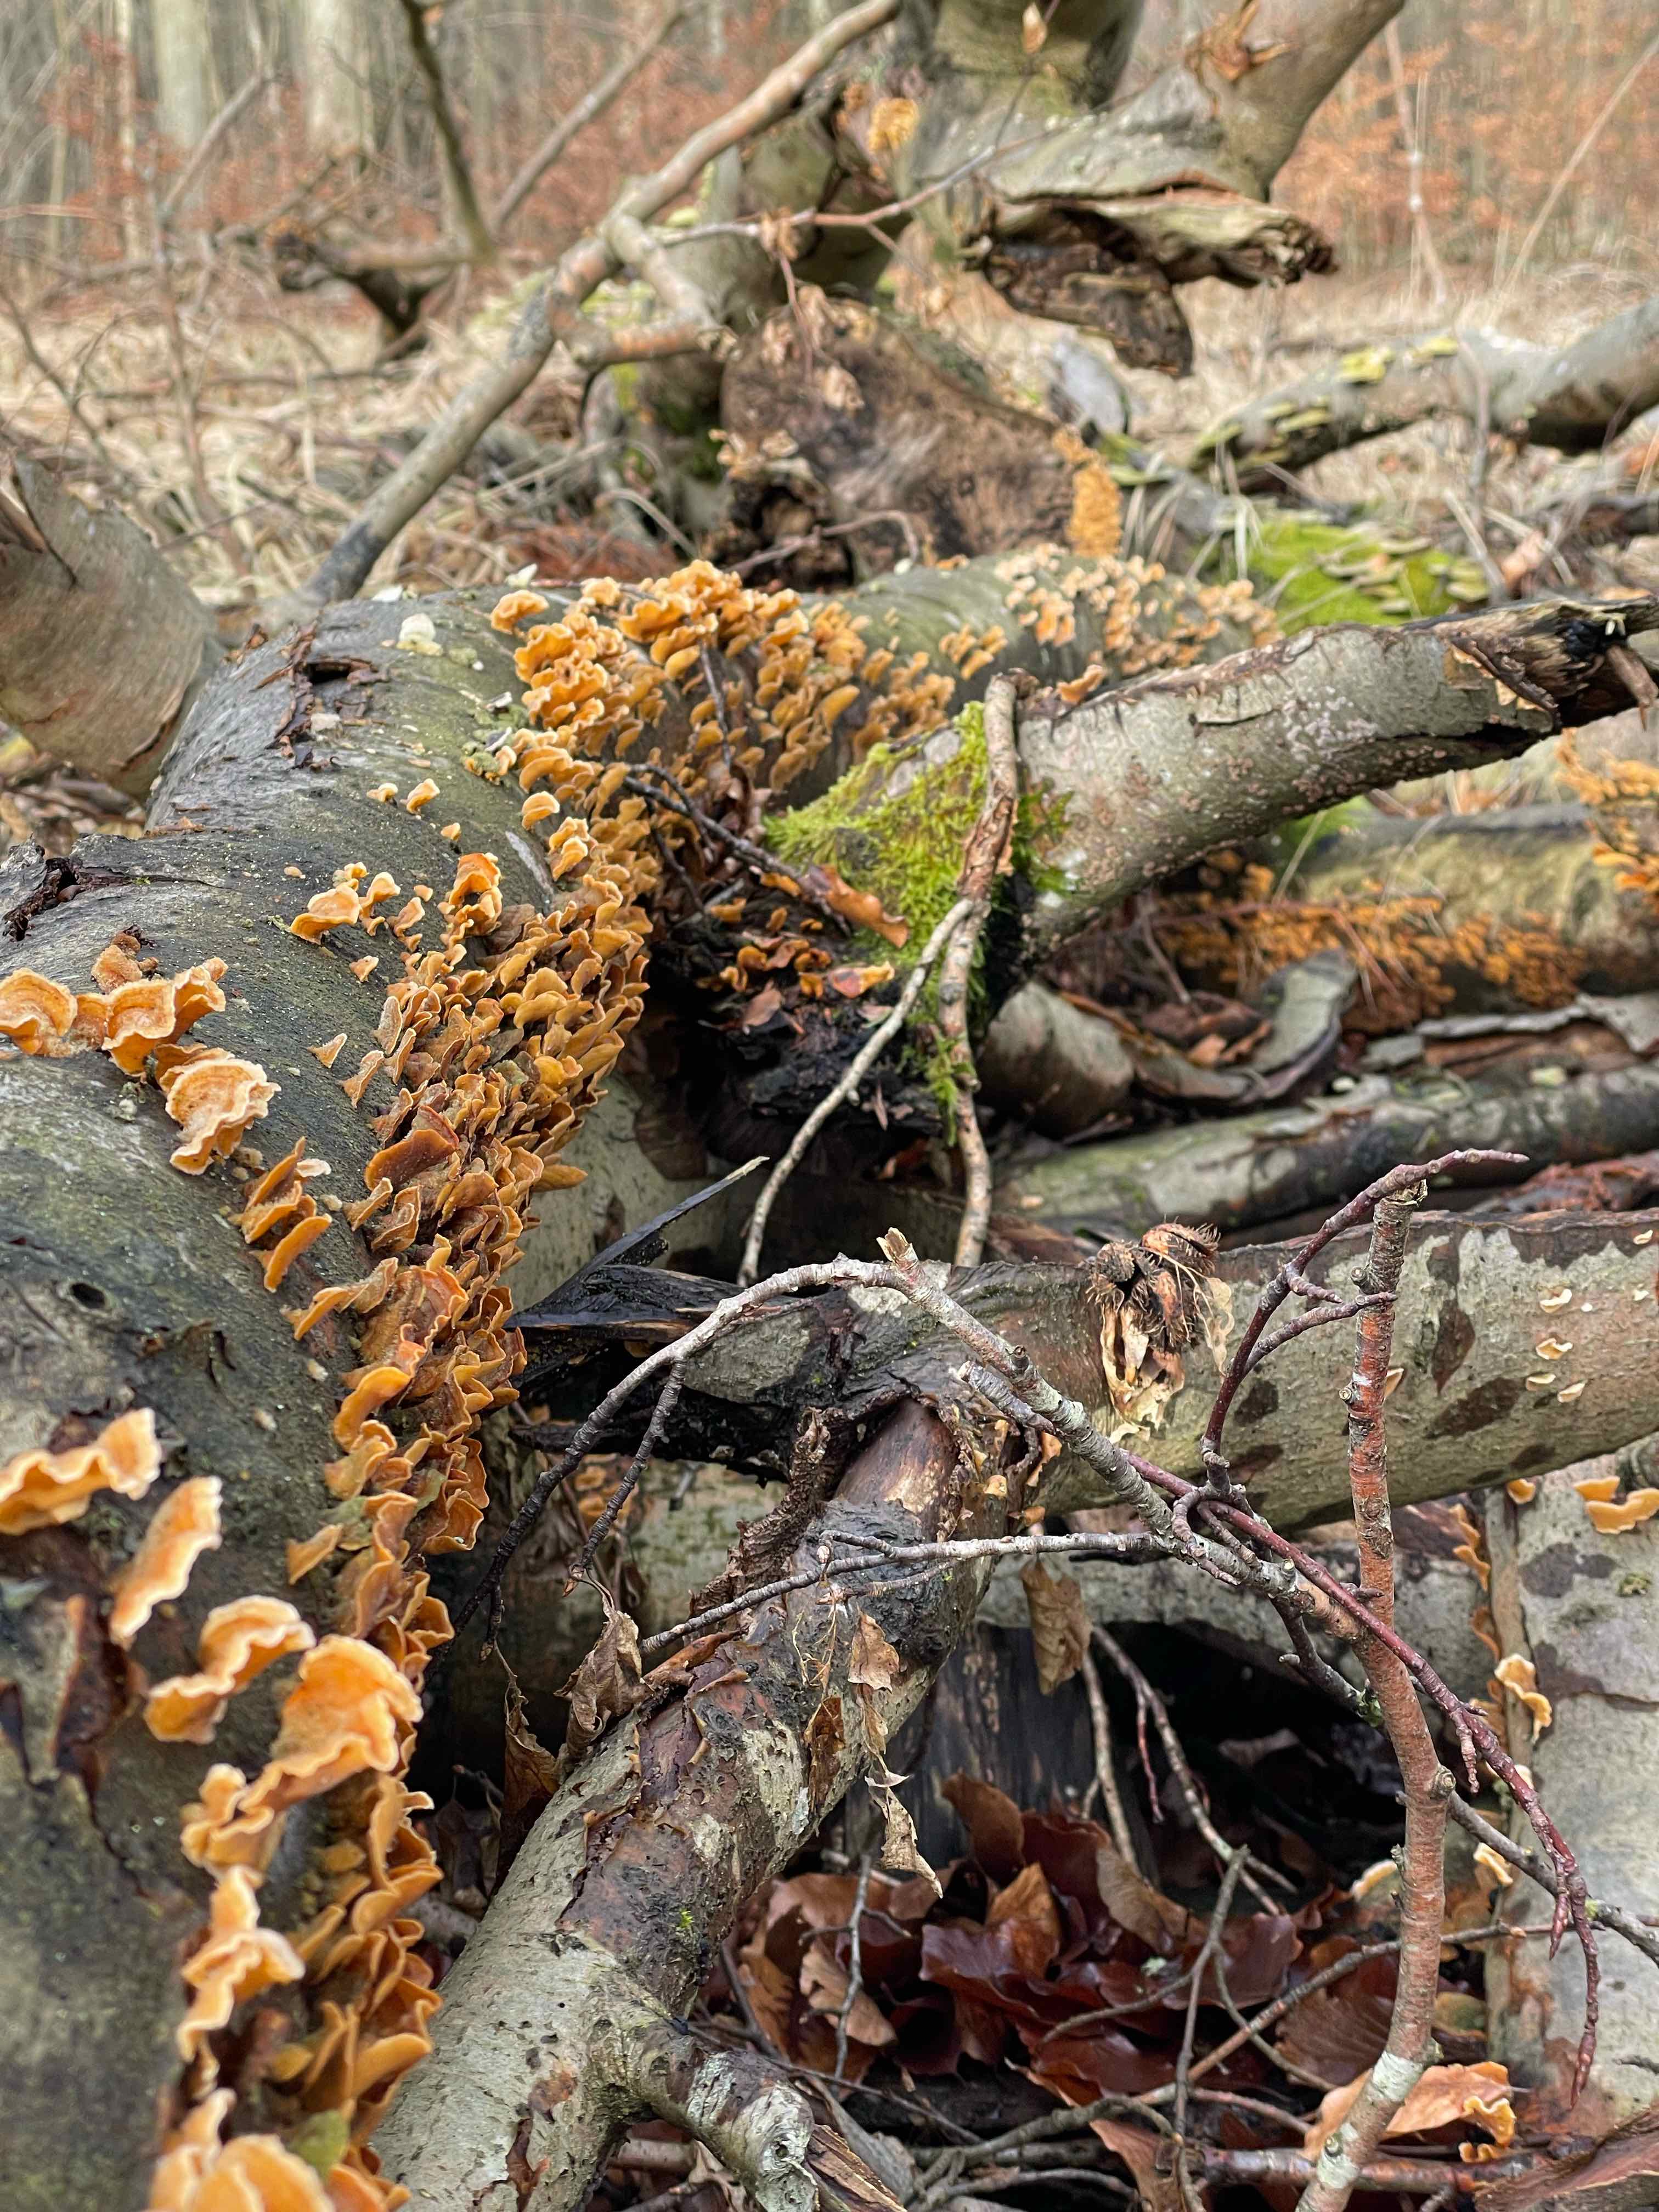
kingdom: Fungi
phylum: Basidiomycota
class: Agaricomycetes
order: Russulales
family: Stereaceae
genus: Stereum
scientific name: Stereum hirsutum
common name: håret lædersvamp
